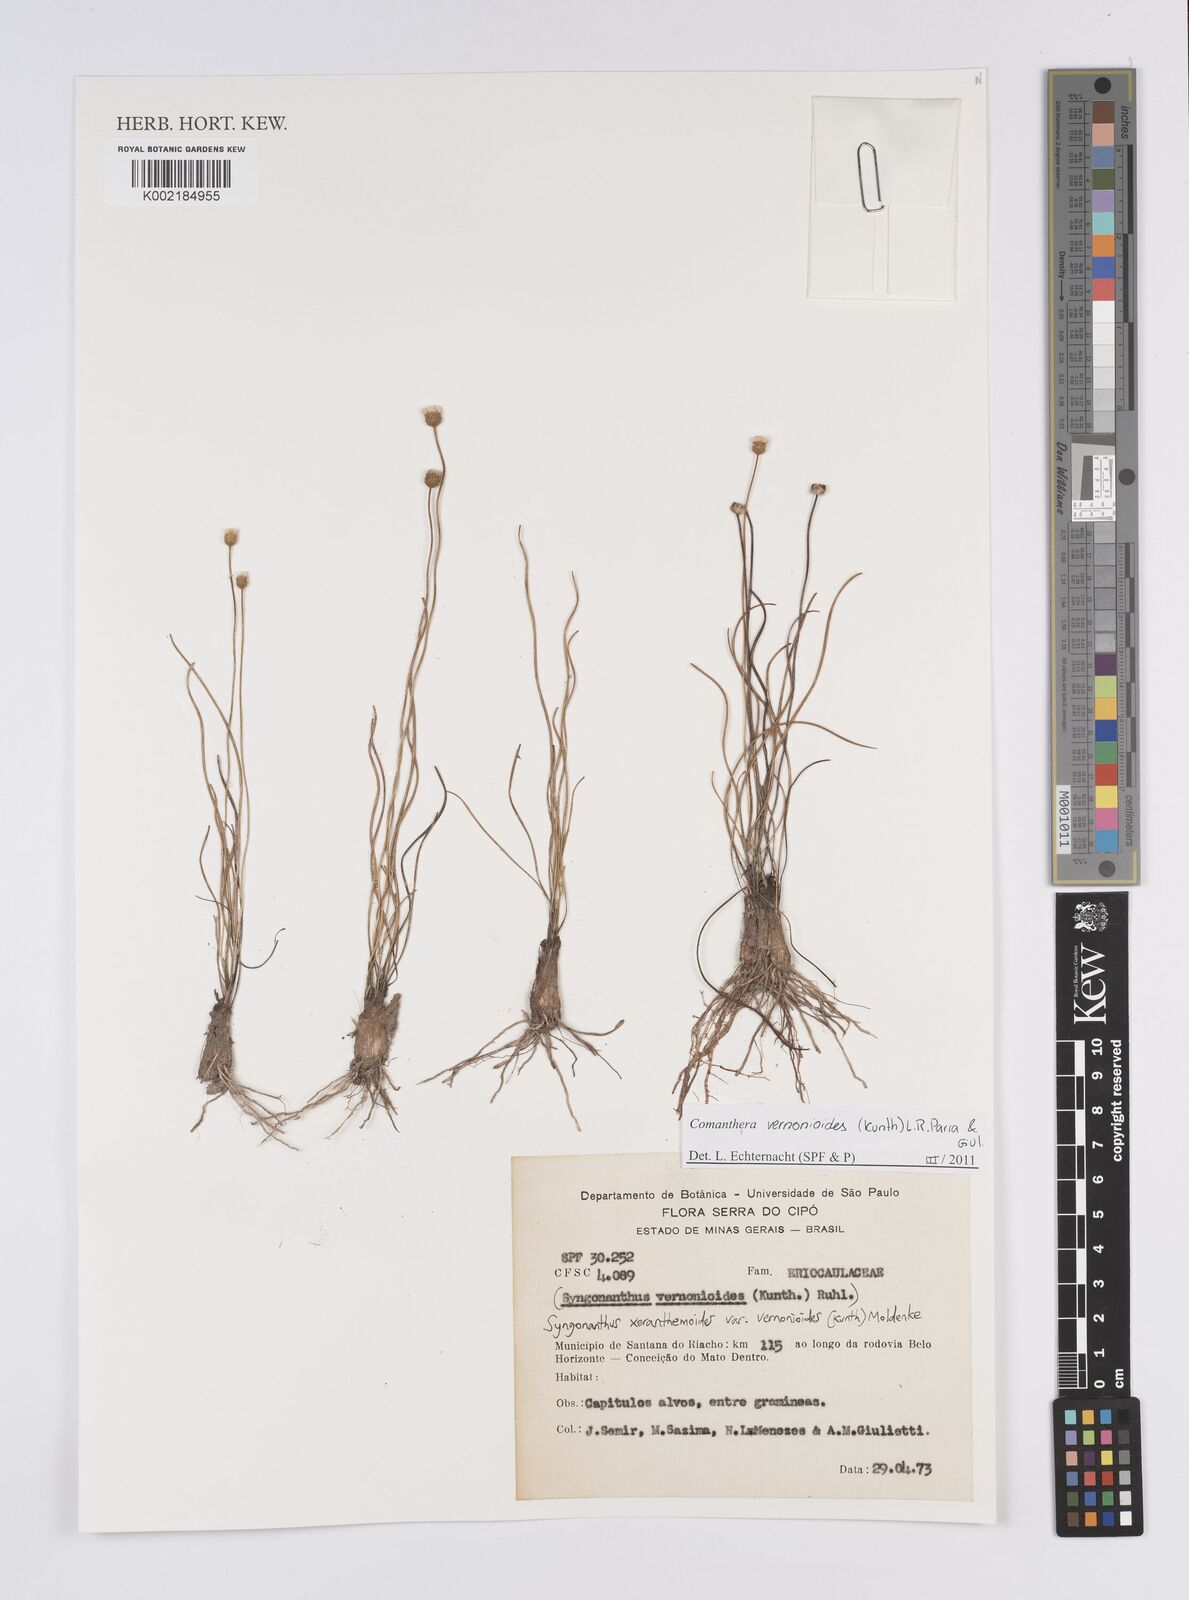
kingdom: Plantae
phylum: Tracheophyta
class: Liliopsida
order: Poales
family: Eriocaulaceae
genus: Comanthera
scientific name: Comanthera centauroides
